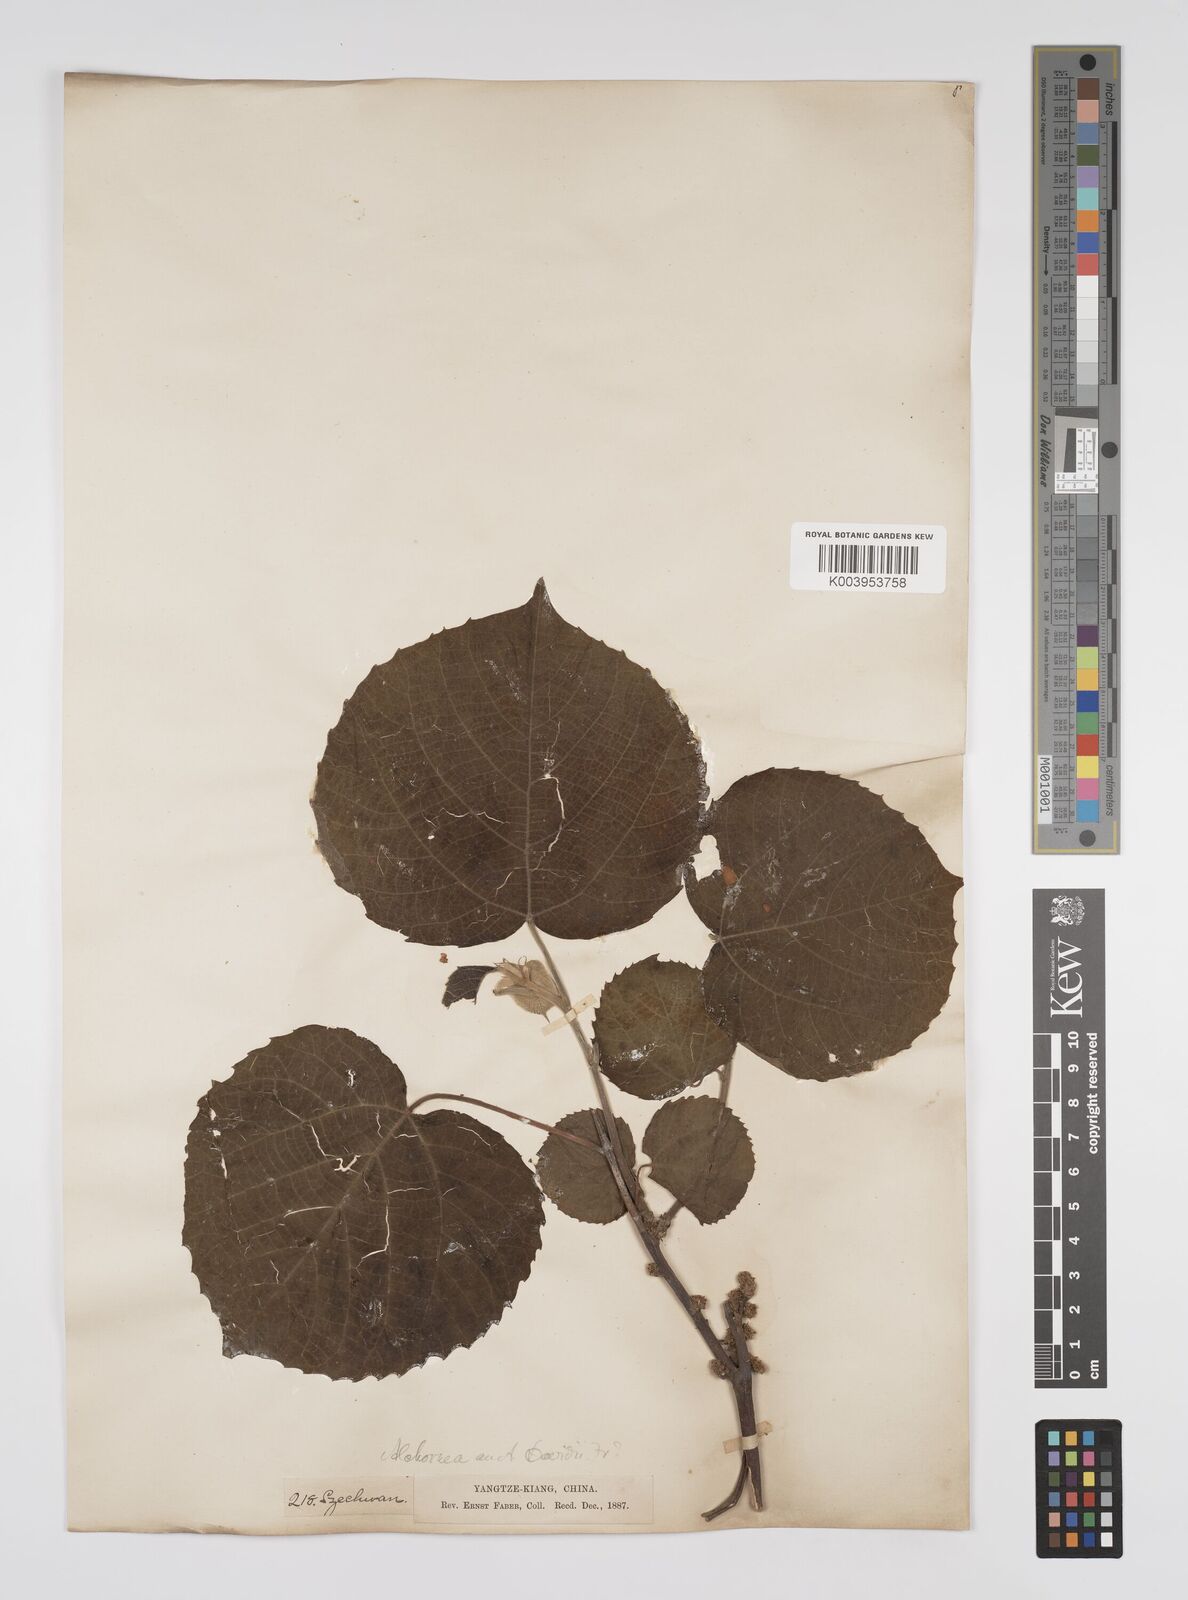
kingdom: Plantae
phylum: Tracheophyta
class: Magnoliopsida
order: Malpighiales
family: Euphorbiaceae
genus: Alchornea
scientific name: Alchornea davidii
